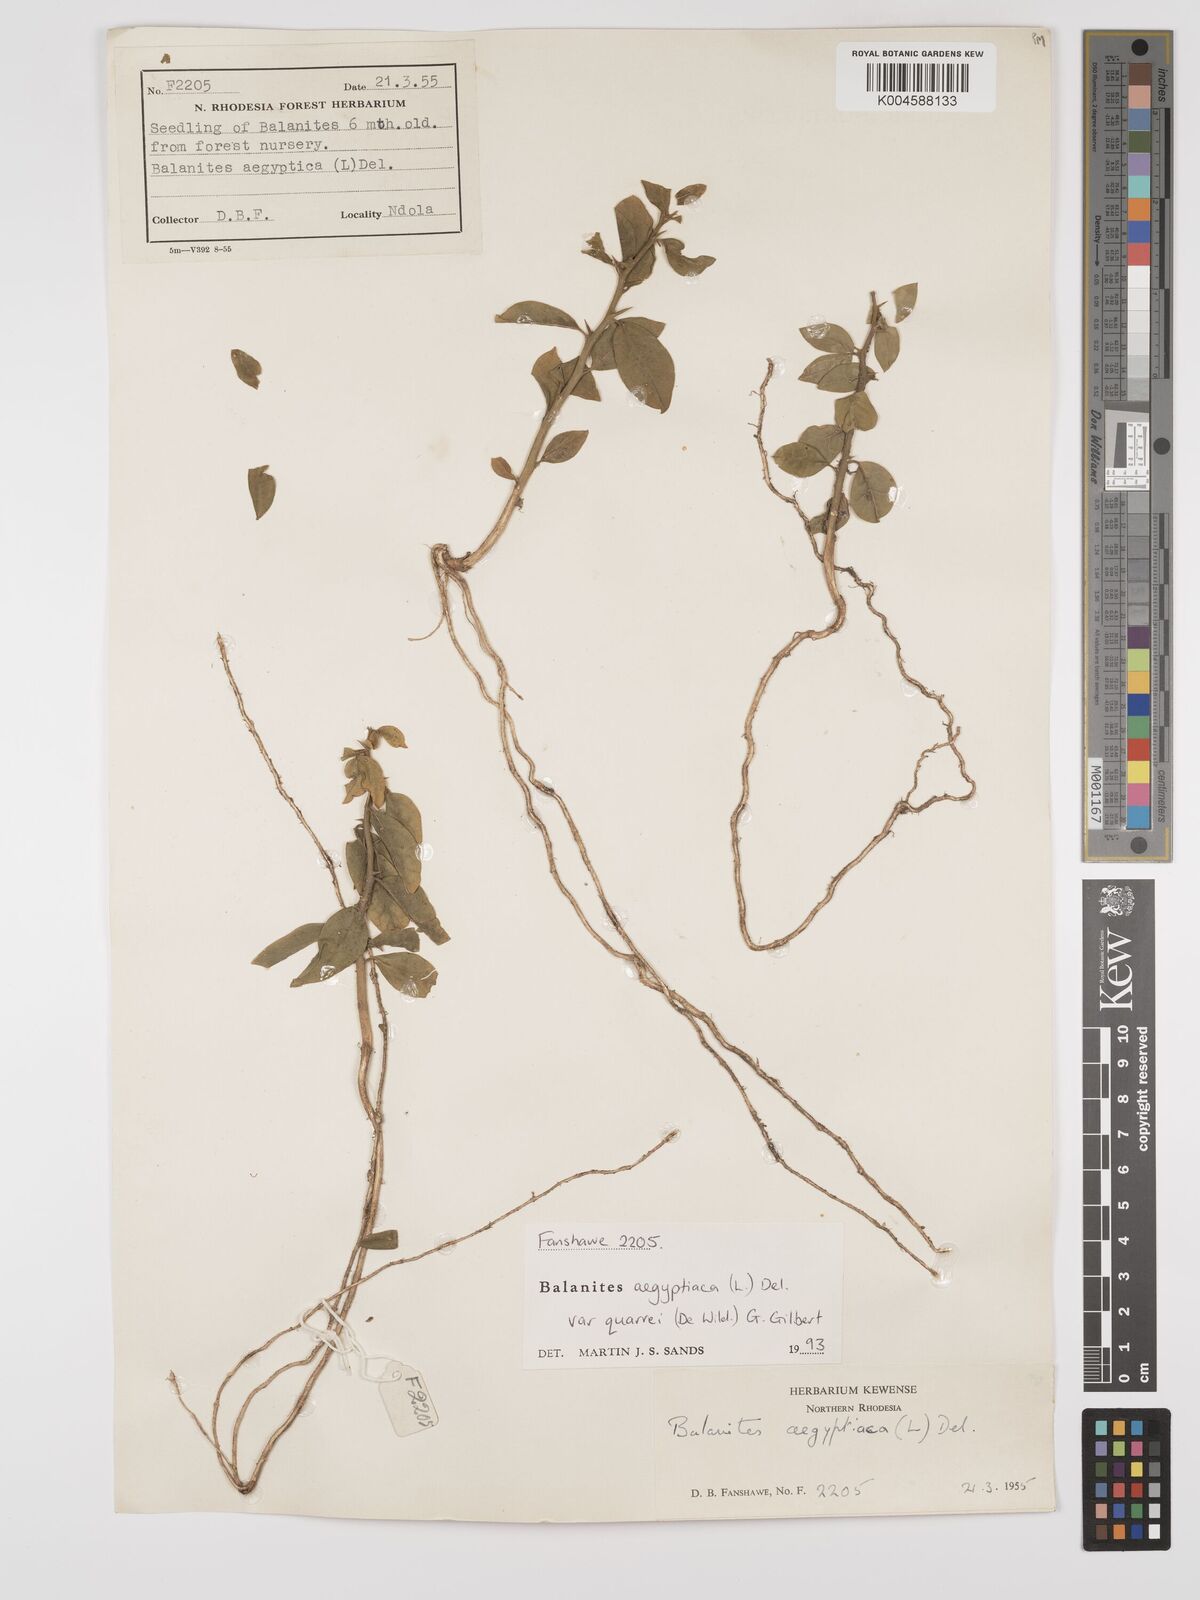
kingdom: Plantae
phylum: Tracheophyta
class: Magnoliopsida
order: Zygophyllales
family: Zygophyllaceae
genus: Balanites
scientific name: Balanites aegyptiaca
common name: Balanites
